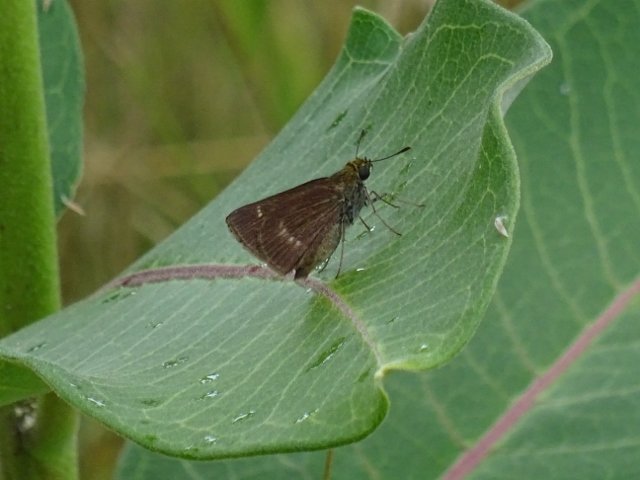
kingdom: Animalia
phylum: Arthropoda
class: Insecta
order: Lepidoptera
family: Hesperiidae
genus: Polites
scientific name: Polites egeremet
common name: Northern Broken-Dash
